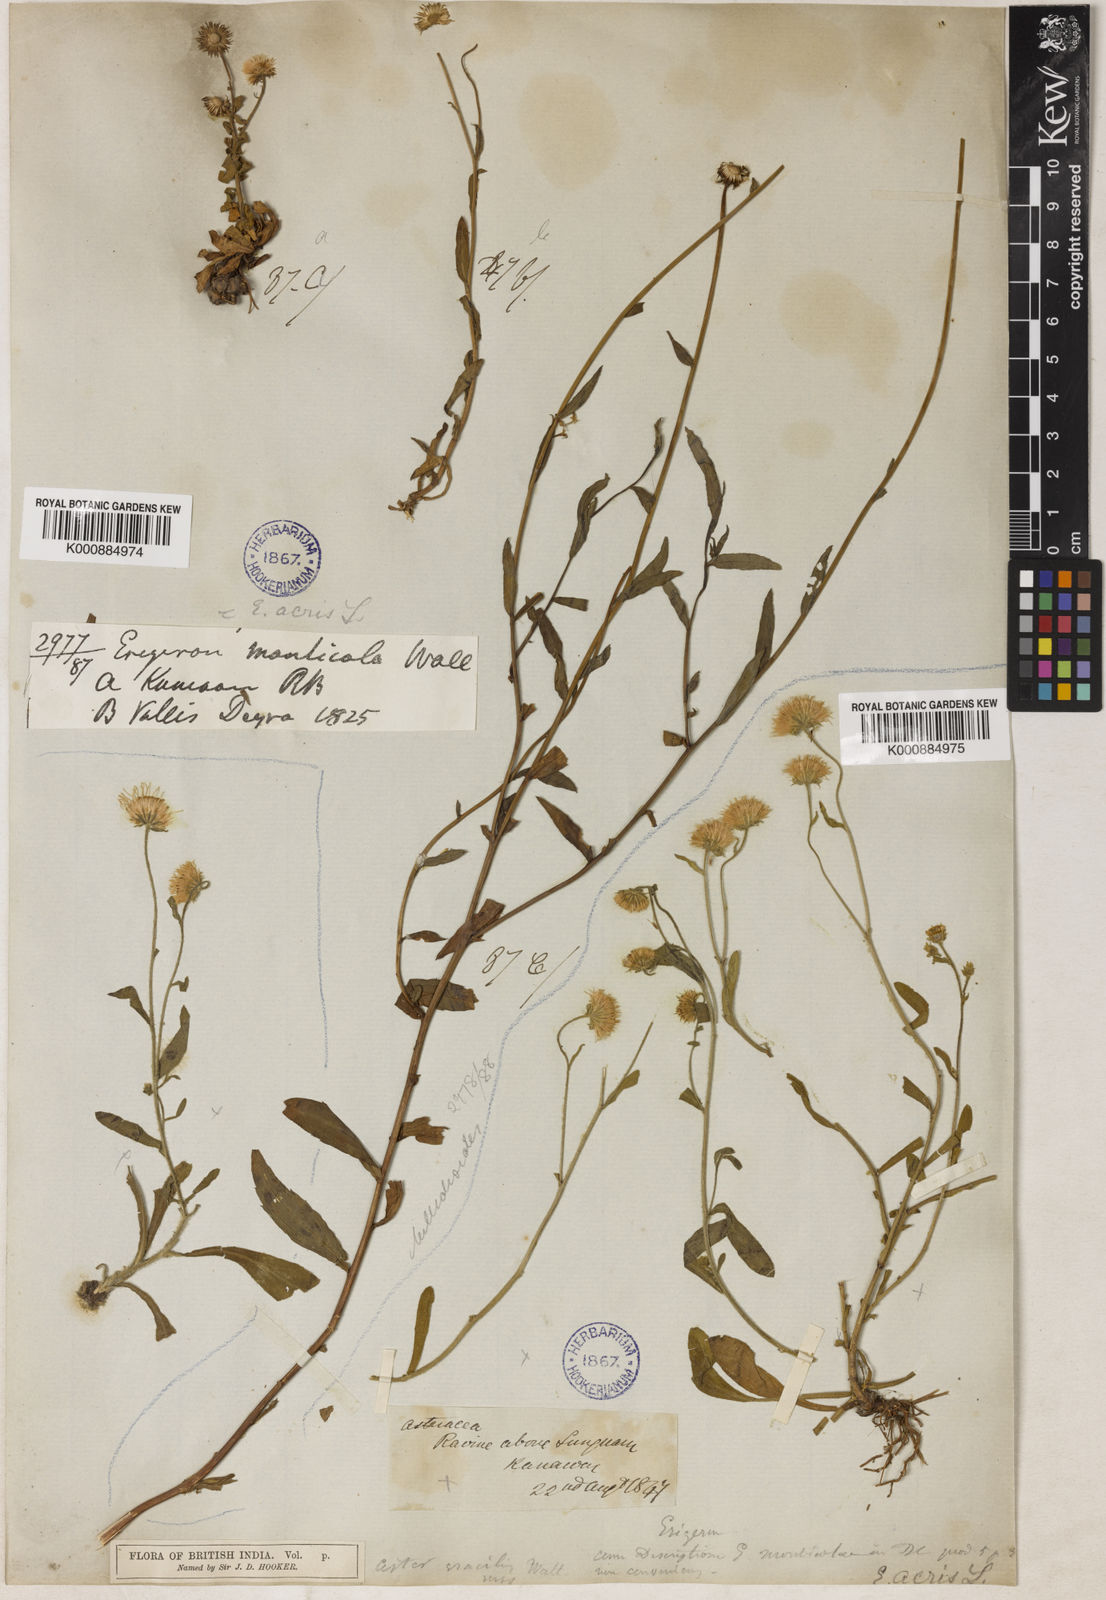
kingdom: Plantae
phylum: Tracheophyta
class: Magnoliopsida
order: Asterales
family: Asteraceae
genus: Erigeron
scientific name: Erigeron monticolus
